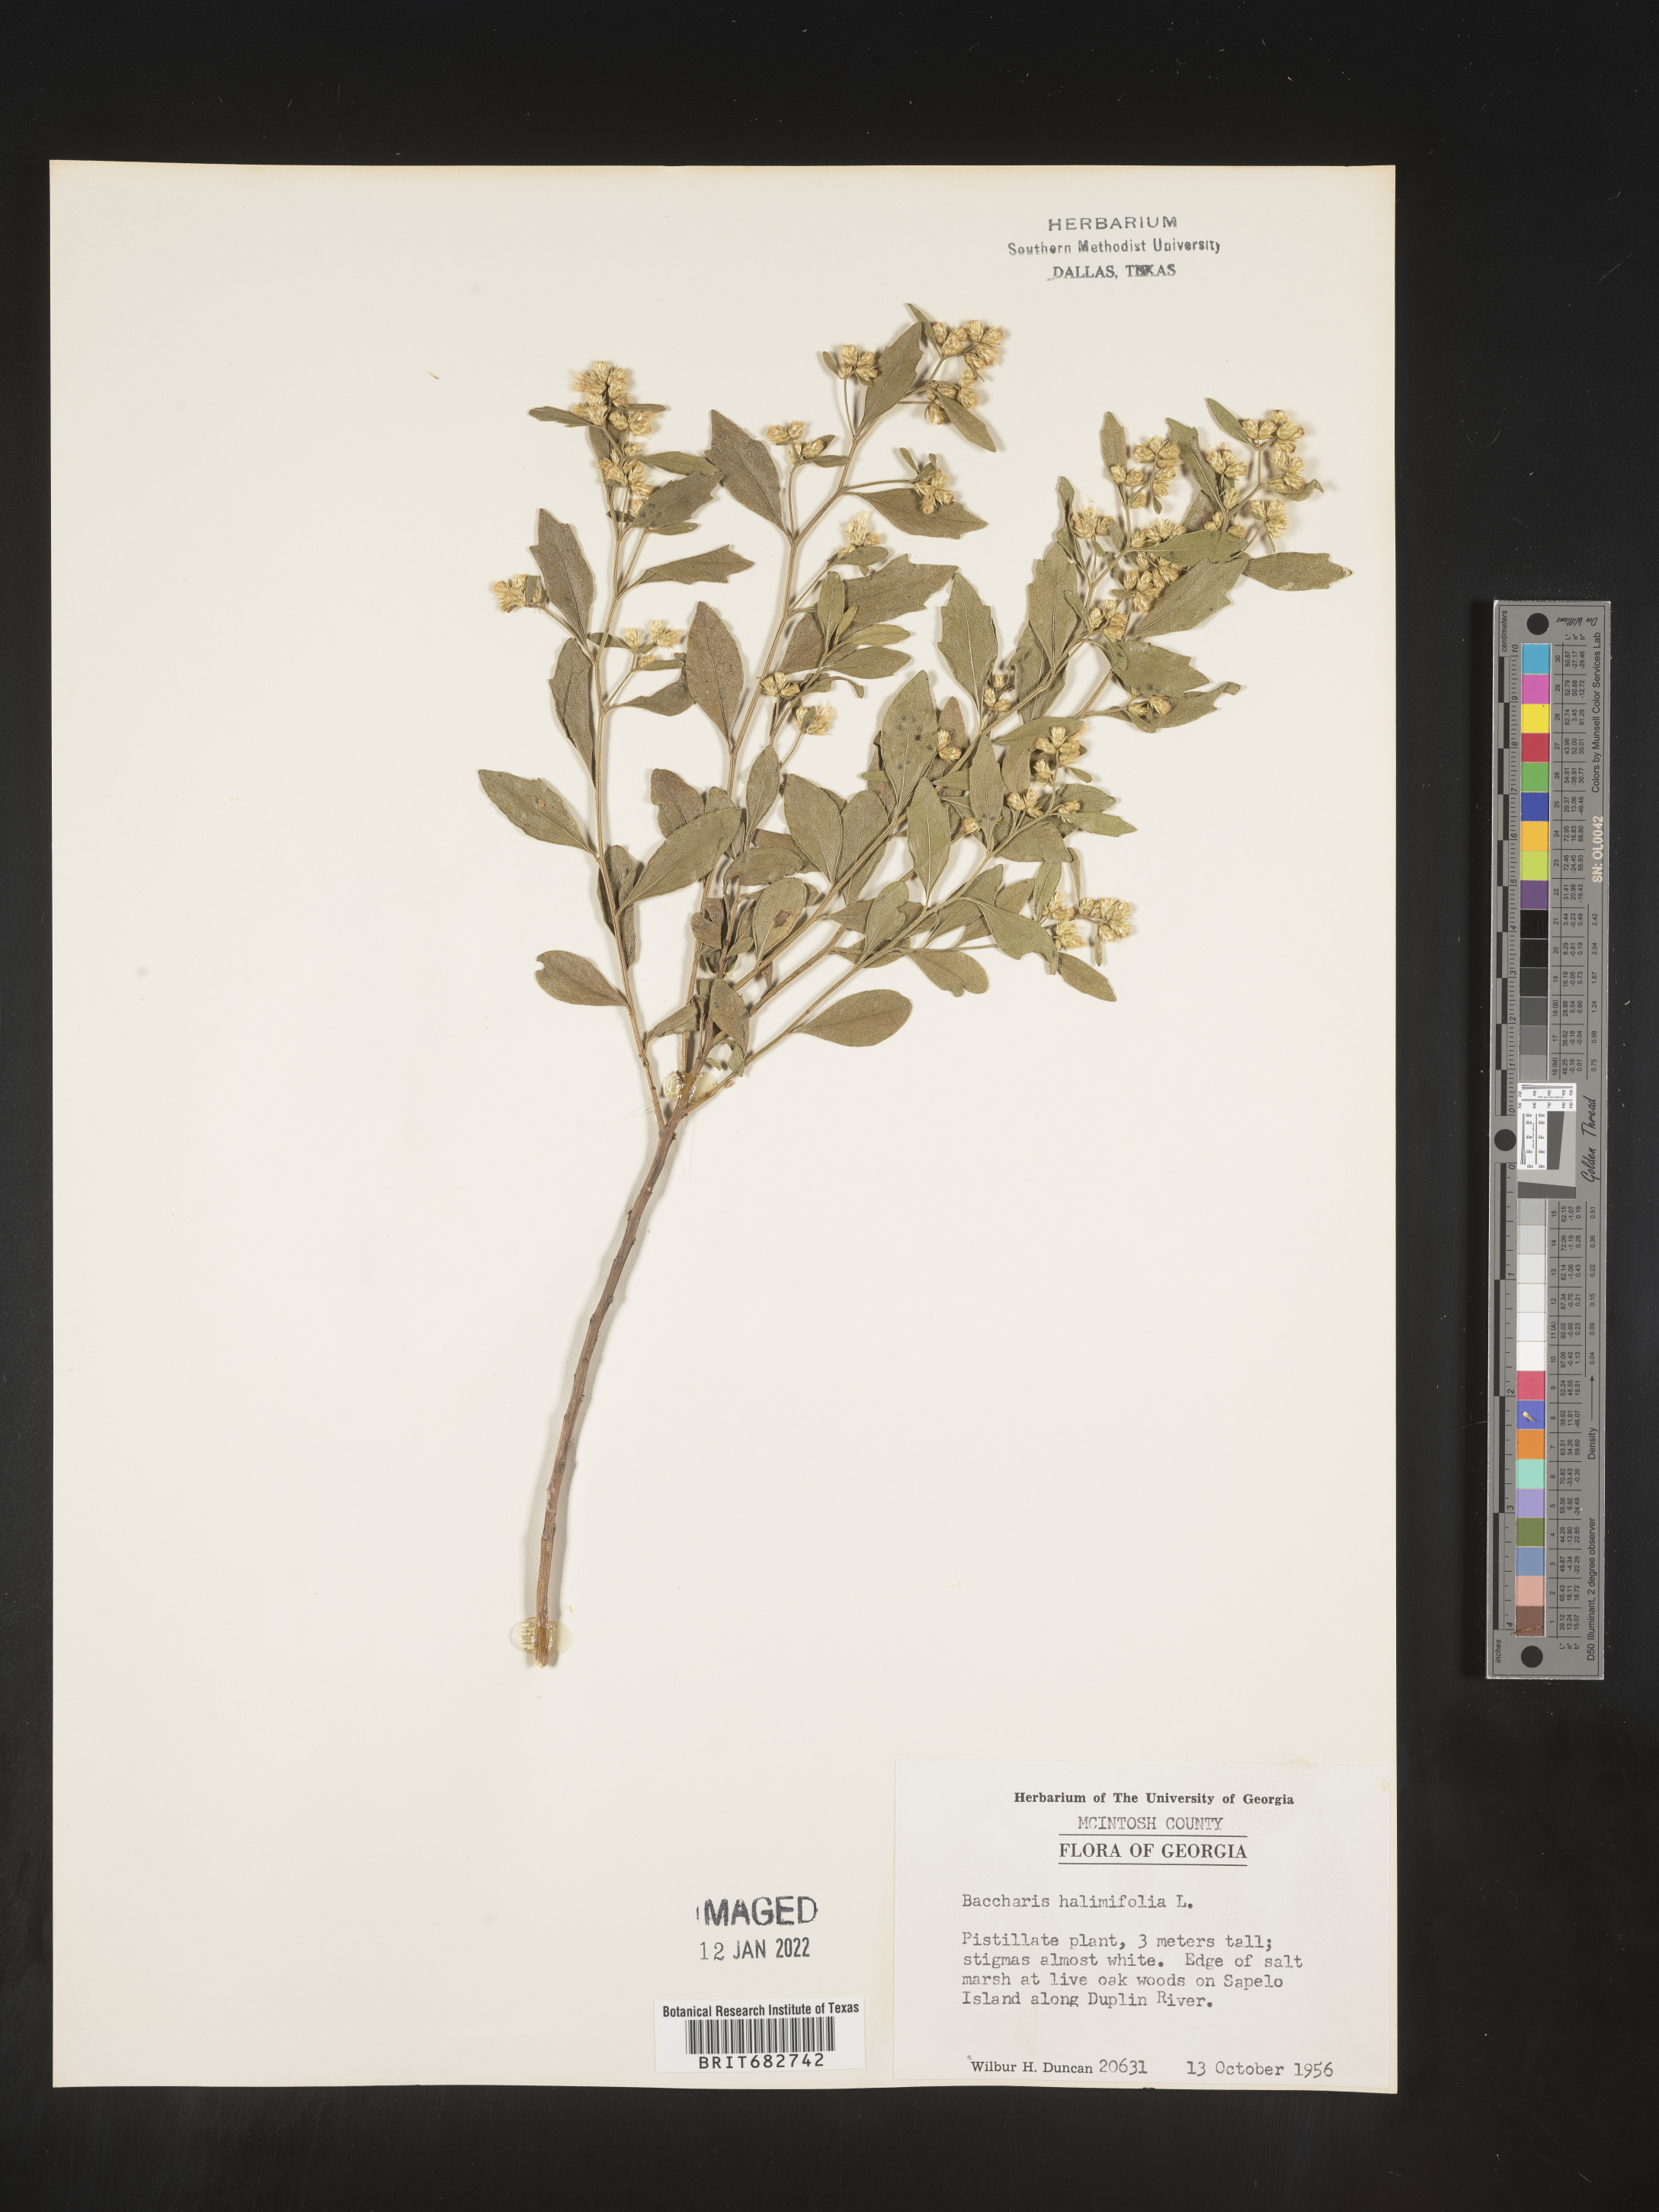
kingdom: Plantae
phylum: Tracheophyta
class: Magnoliopsida
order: Asterales
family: Asteraceae
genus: Nidorella
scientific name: Nidorella ivifolia
